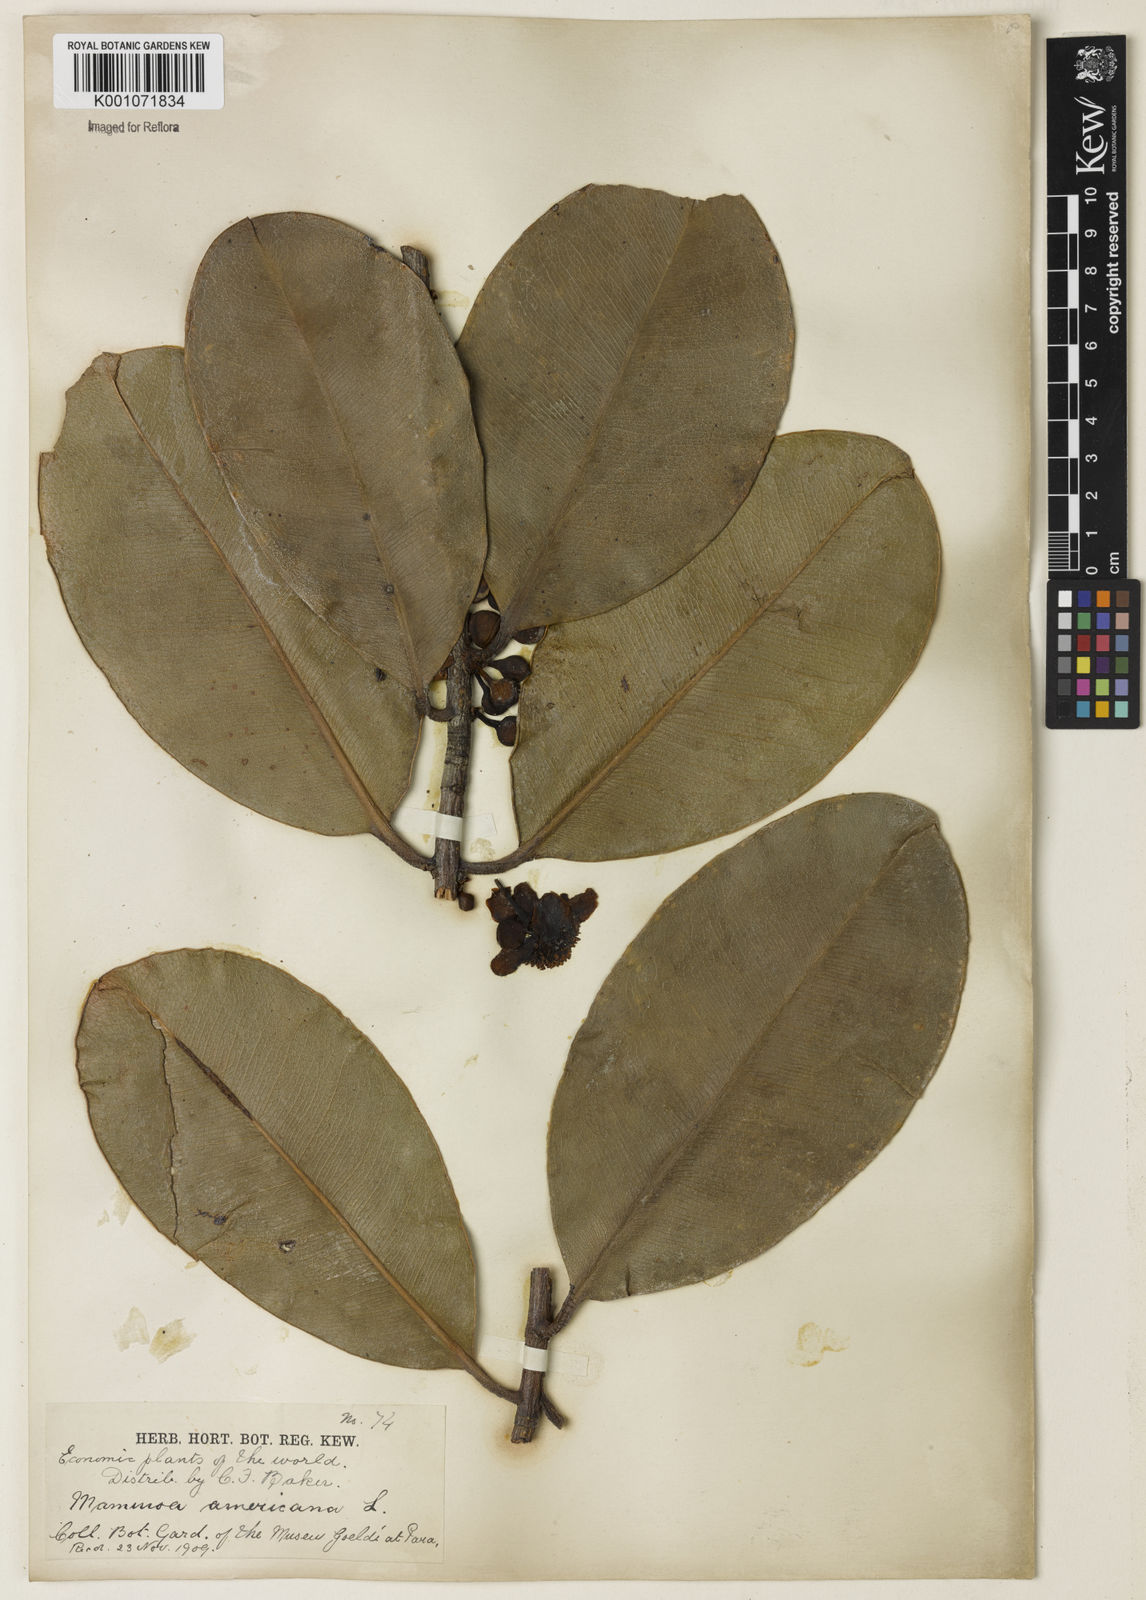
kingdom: Plantae
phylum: Tracheophyta
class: Magnoliopsida
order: Malpighiales
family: Calophyllaceae
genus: Mammea
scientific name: Mammea americana
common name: Mamey
